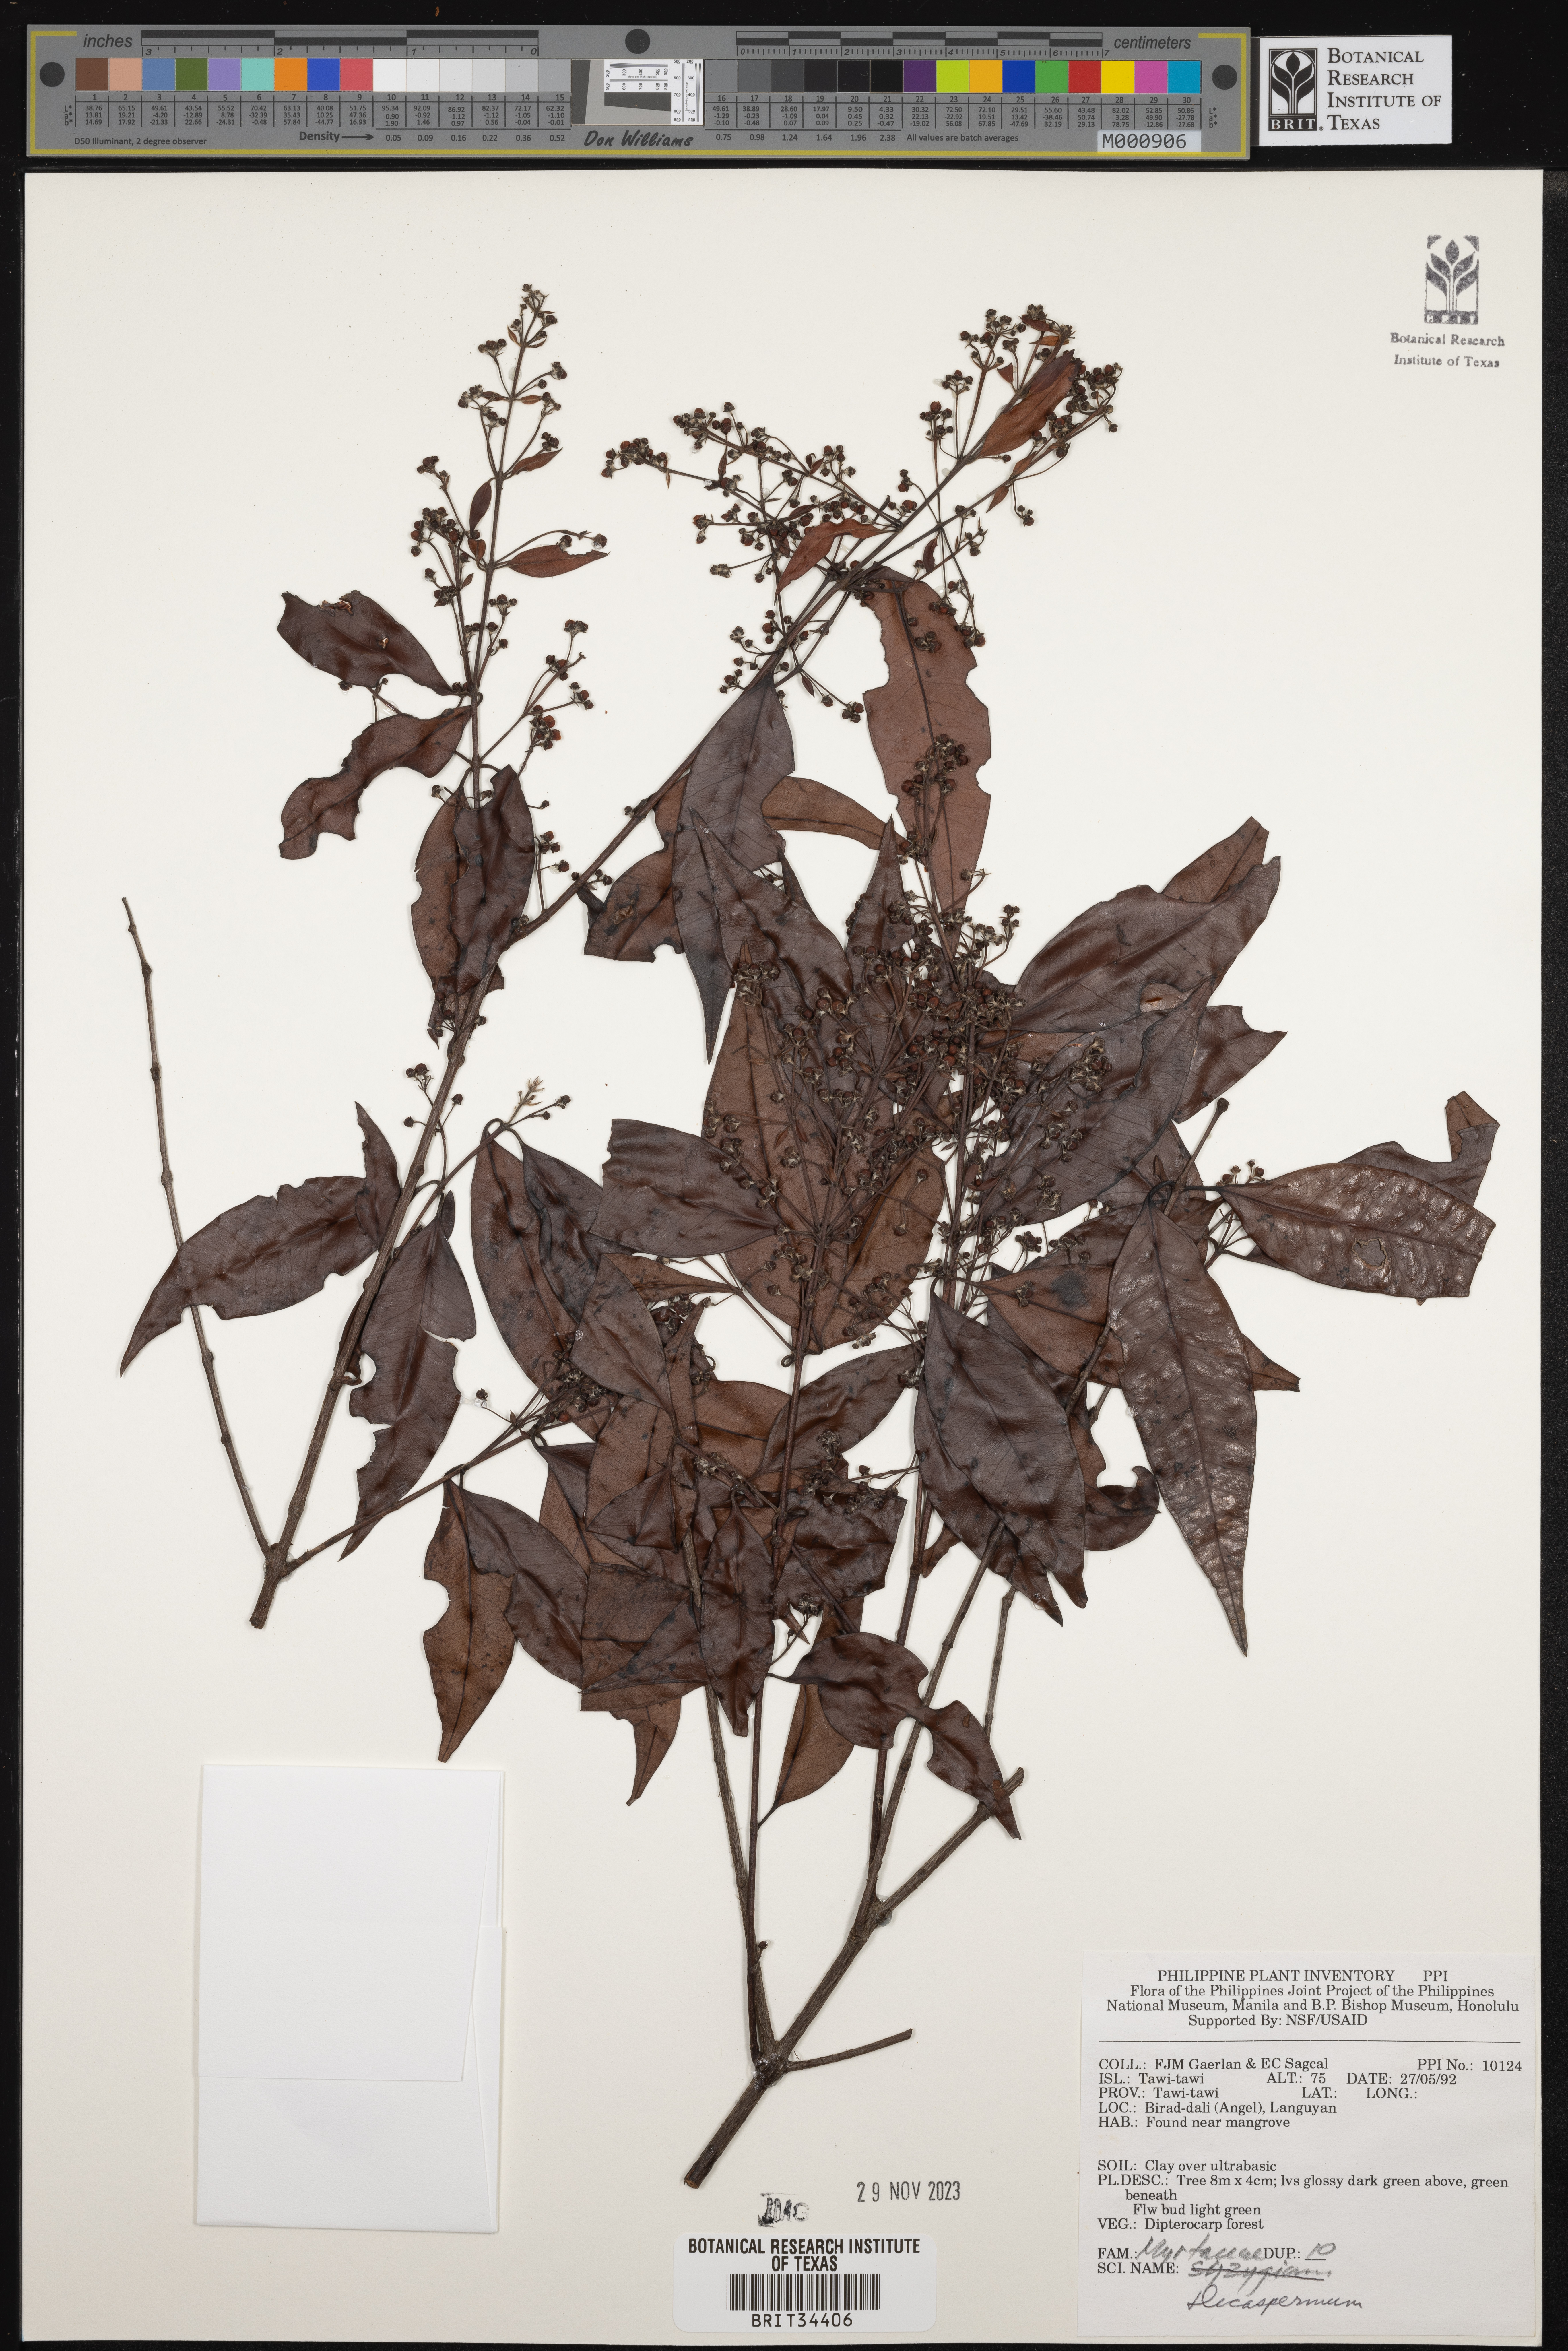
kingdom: Plantae
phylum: Tracheophyta
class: Magnoliopsida
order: Myrtales
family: Myrtaceae
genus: Decaspermum
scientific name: Decaspermum
